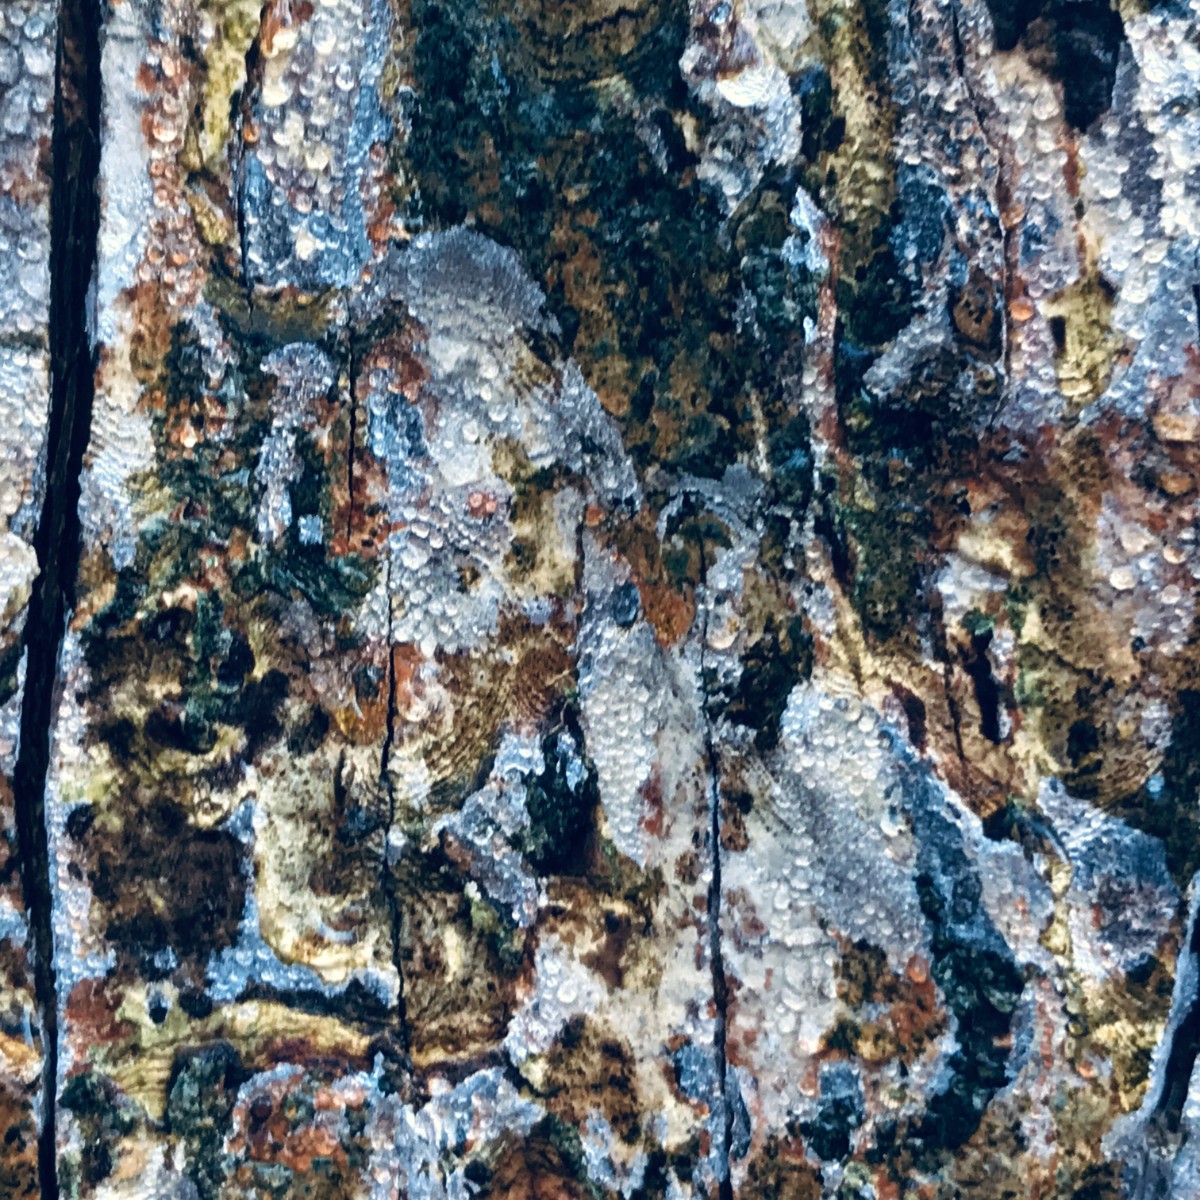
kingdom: Fungi
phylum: Basidiomycota
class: Agaricomycetes
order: Agaricales
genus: Dendrothele
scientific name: Dendrothele acerina
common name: navr-kalkplet
